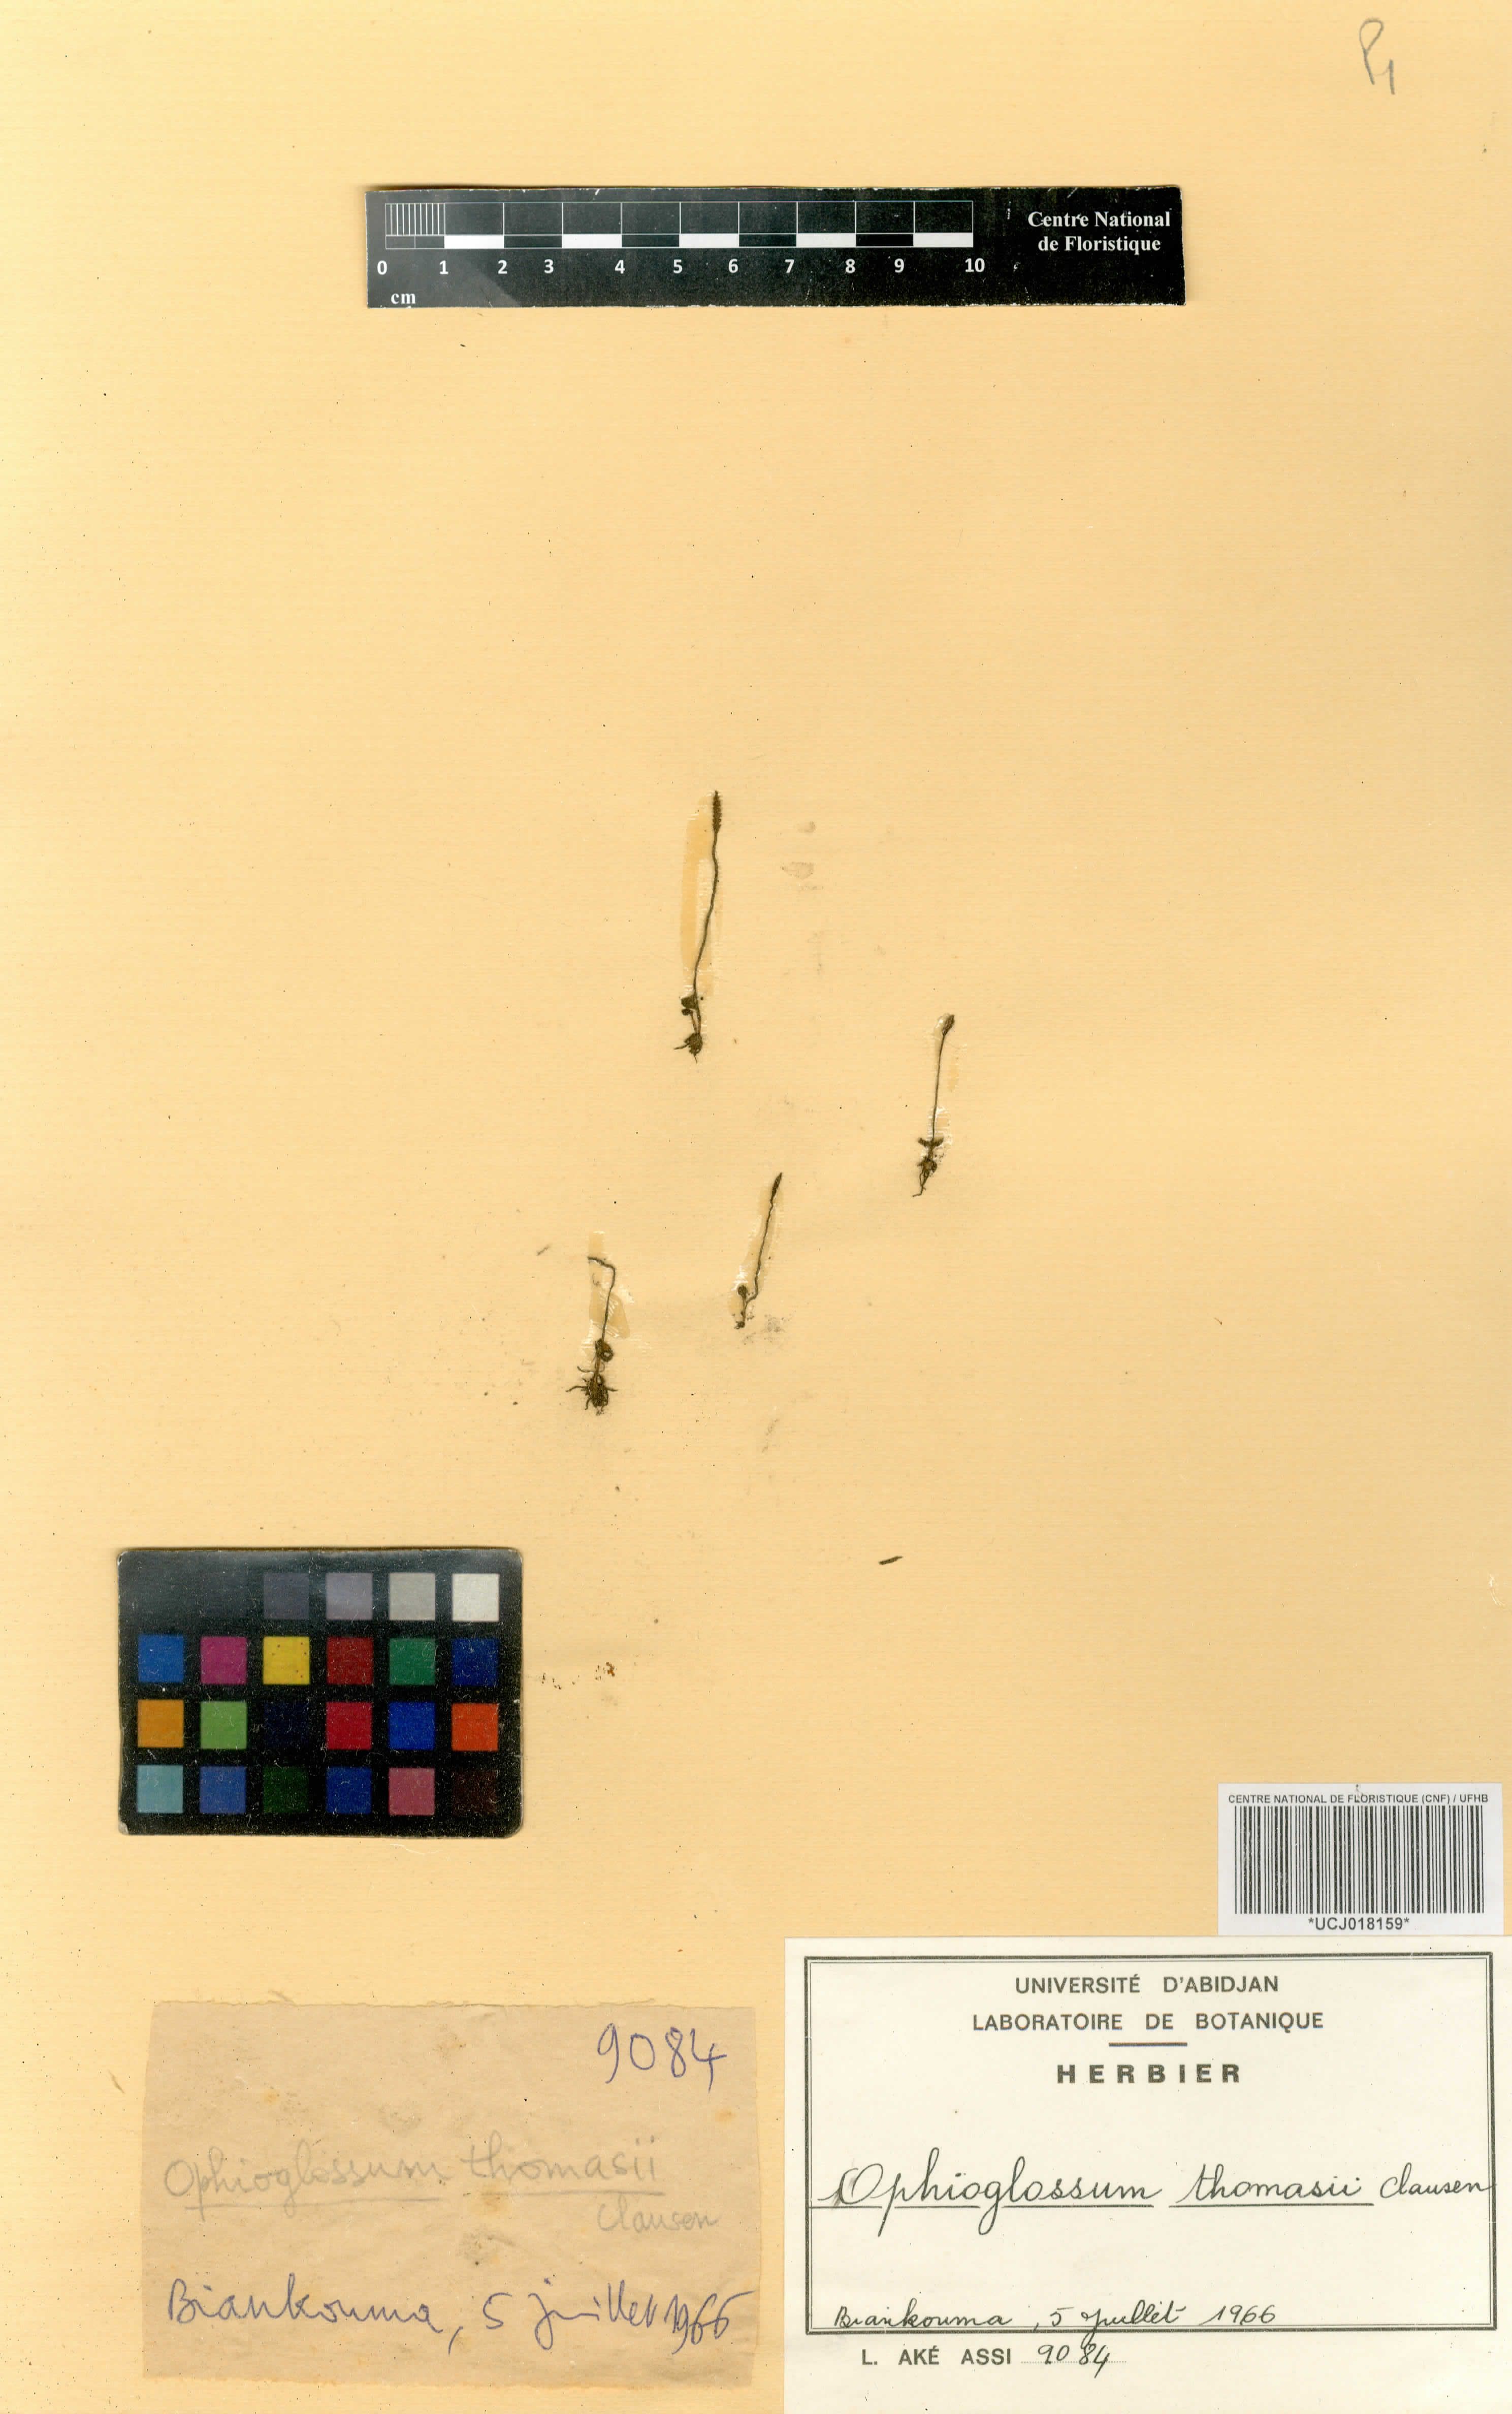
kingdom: Plantae
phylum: Tracheophyta
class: Polypodiopsida
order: Ophioglossales
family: Ophioglossaceae
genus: Ophioglossum
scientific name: Ophioglossum thomasii
